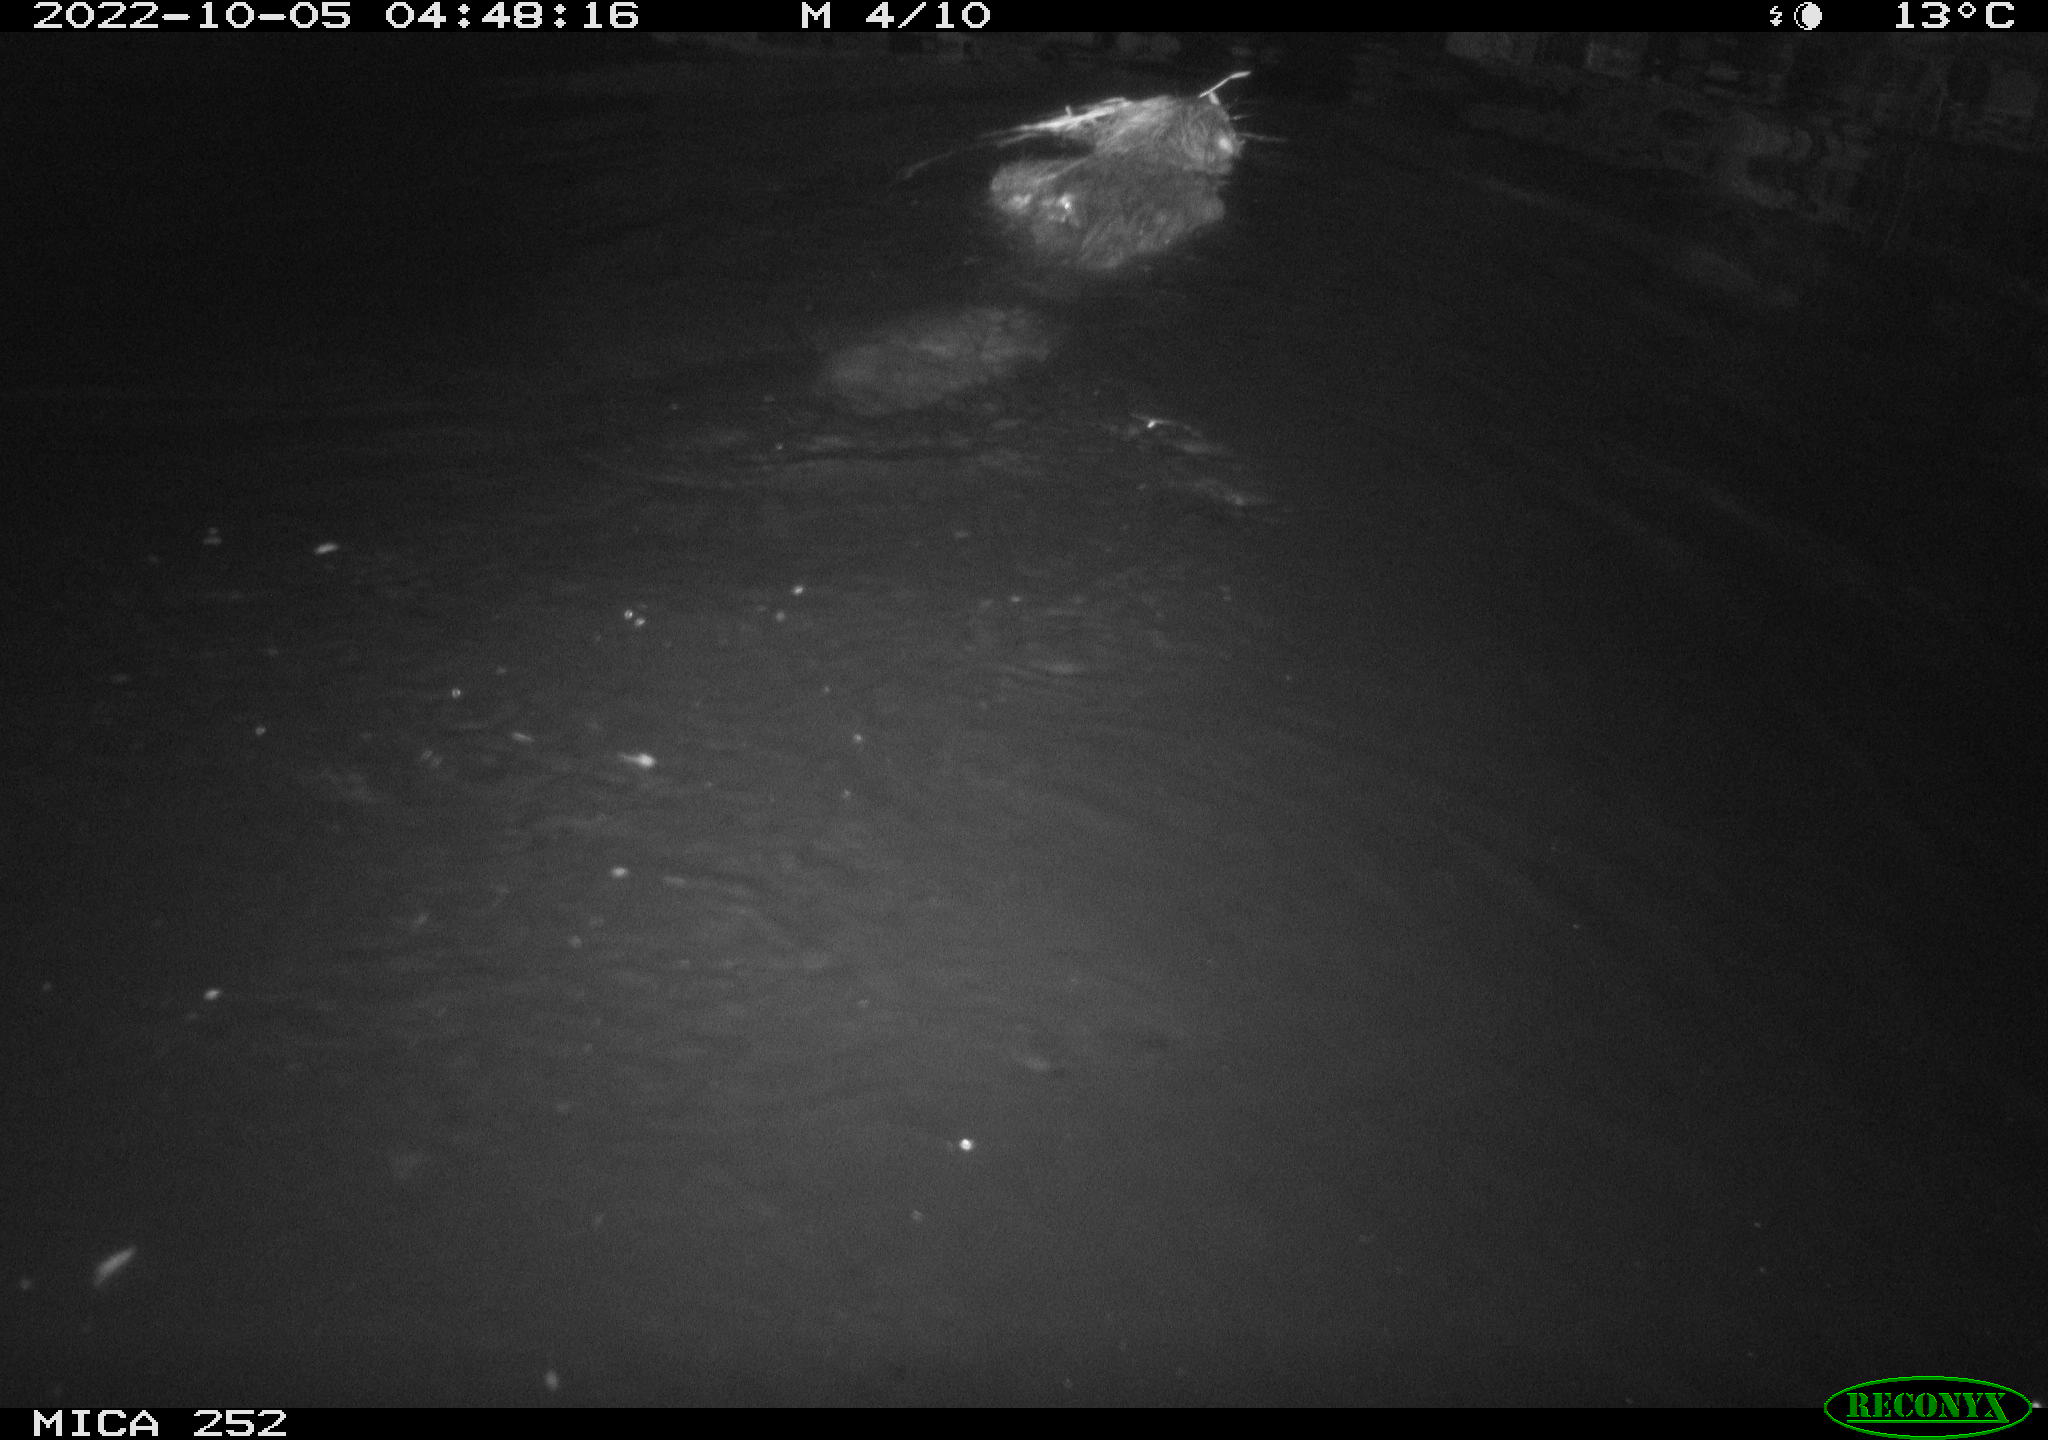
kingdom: Animalia
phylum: Chordata
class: Mammalia
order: Rodentia
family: Castoridae
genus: Castor
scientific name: Castor fiber
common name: Eurasian beaver
